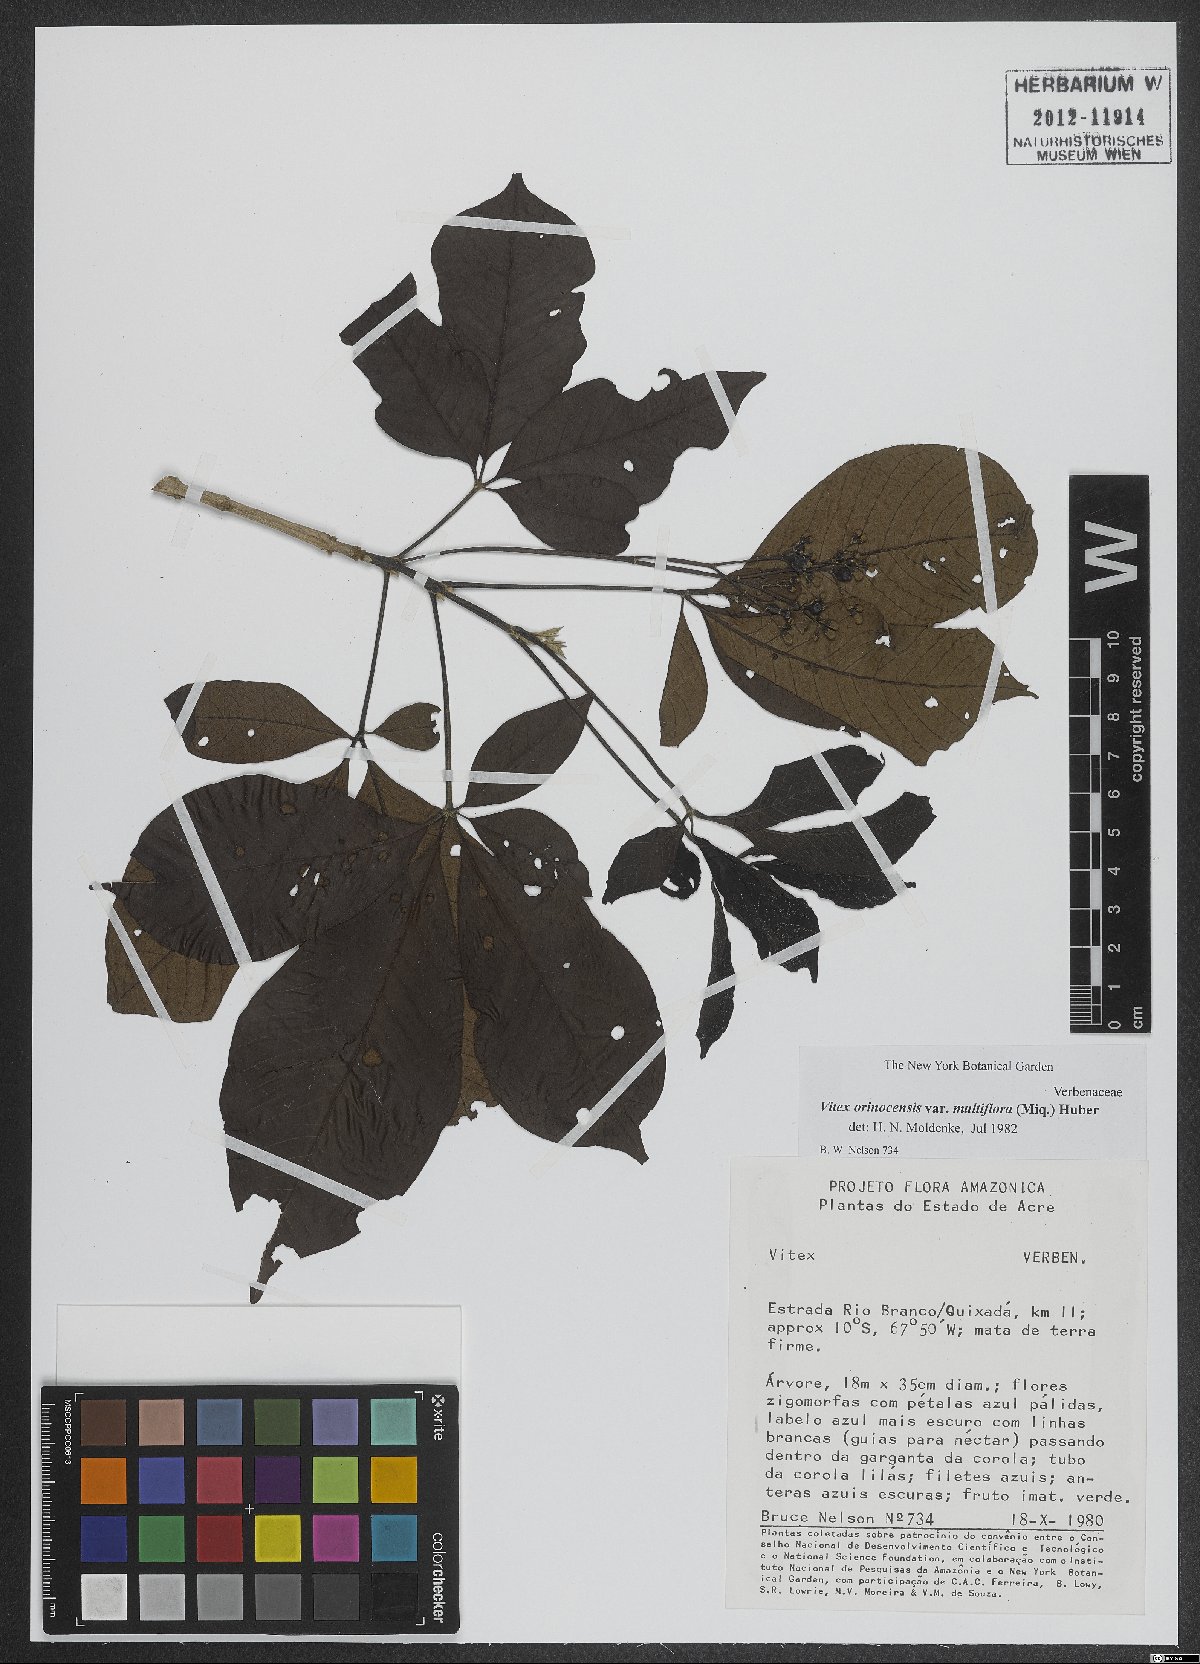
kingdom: Plantae
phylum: Tracheophyta
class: Magnoliopsida
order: Lamiales
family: Lamiaceae
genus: Vitex
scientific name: Vitex orinocensis
